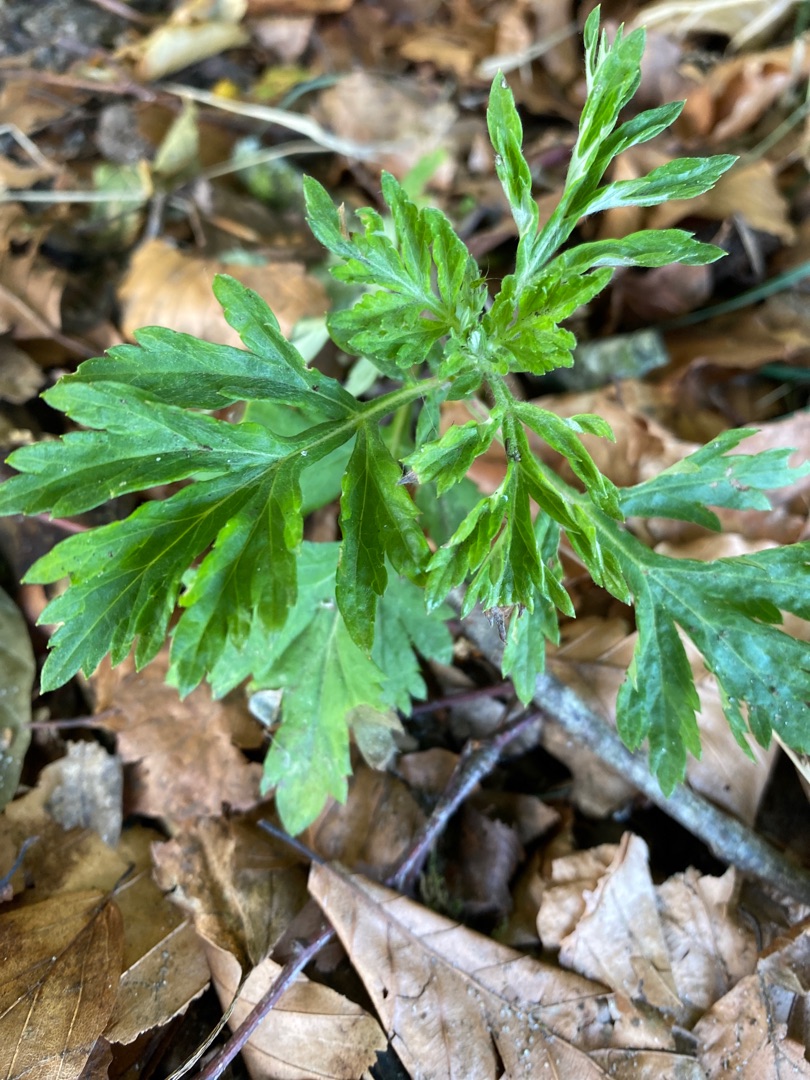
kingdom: Plantae
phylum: Tracheophyta
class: Magnoliopsida
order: Asterales
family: Asteraceae
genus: Artemisia
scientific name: Artemisia vulgaris
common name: Grå-bynke
